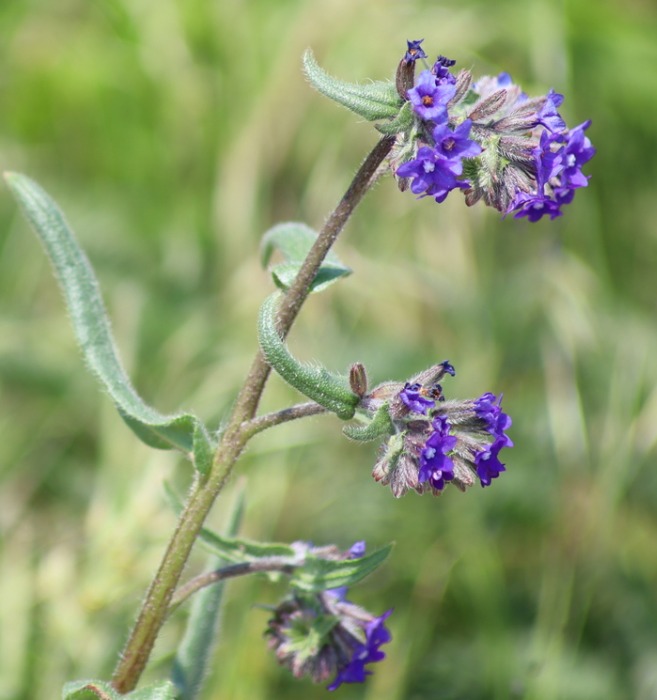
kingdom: Plantae
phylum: Tracheophyta
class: Magnoliopsida
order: Boraginales
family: Boraginaceae
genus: Anchusa
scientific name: Anchusa officinalis
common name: Læge-oksetunge
